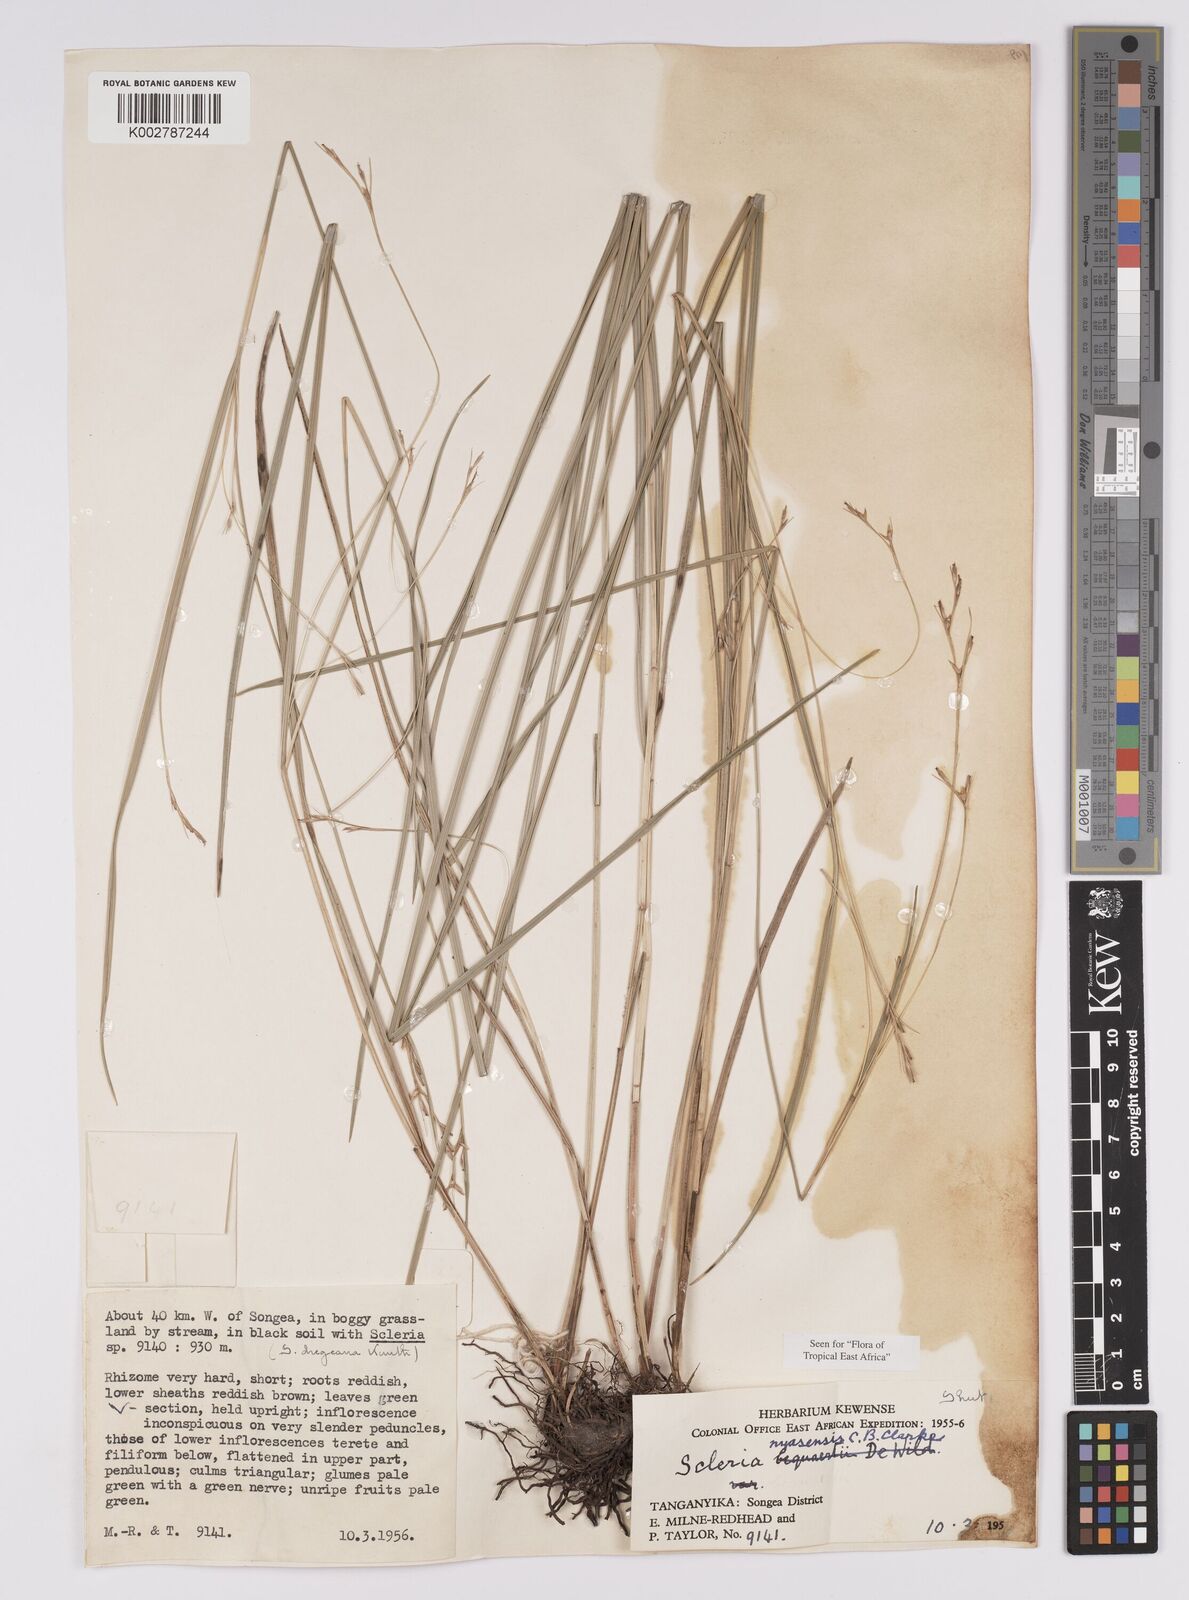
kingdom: Plantae
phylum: Tracheophyta
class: Liliopsida
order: Poales
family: Cyperaceae
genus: Scleria
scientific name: Scleria nyasensis
